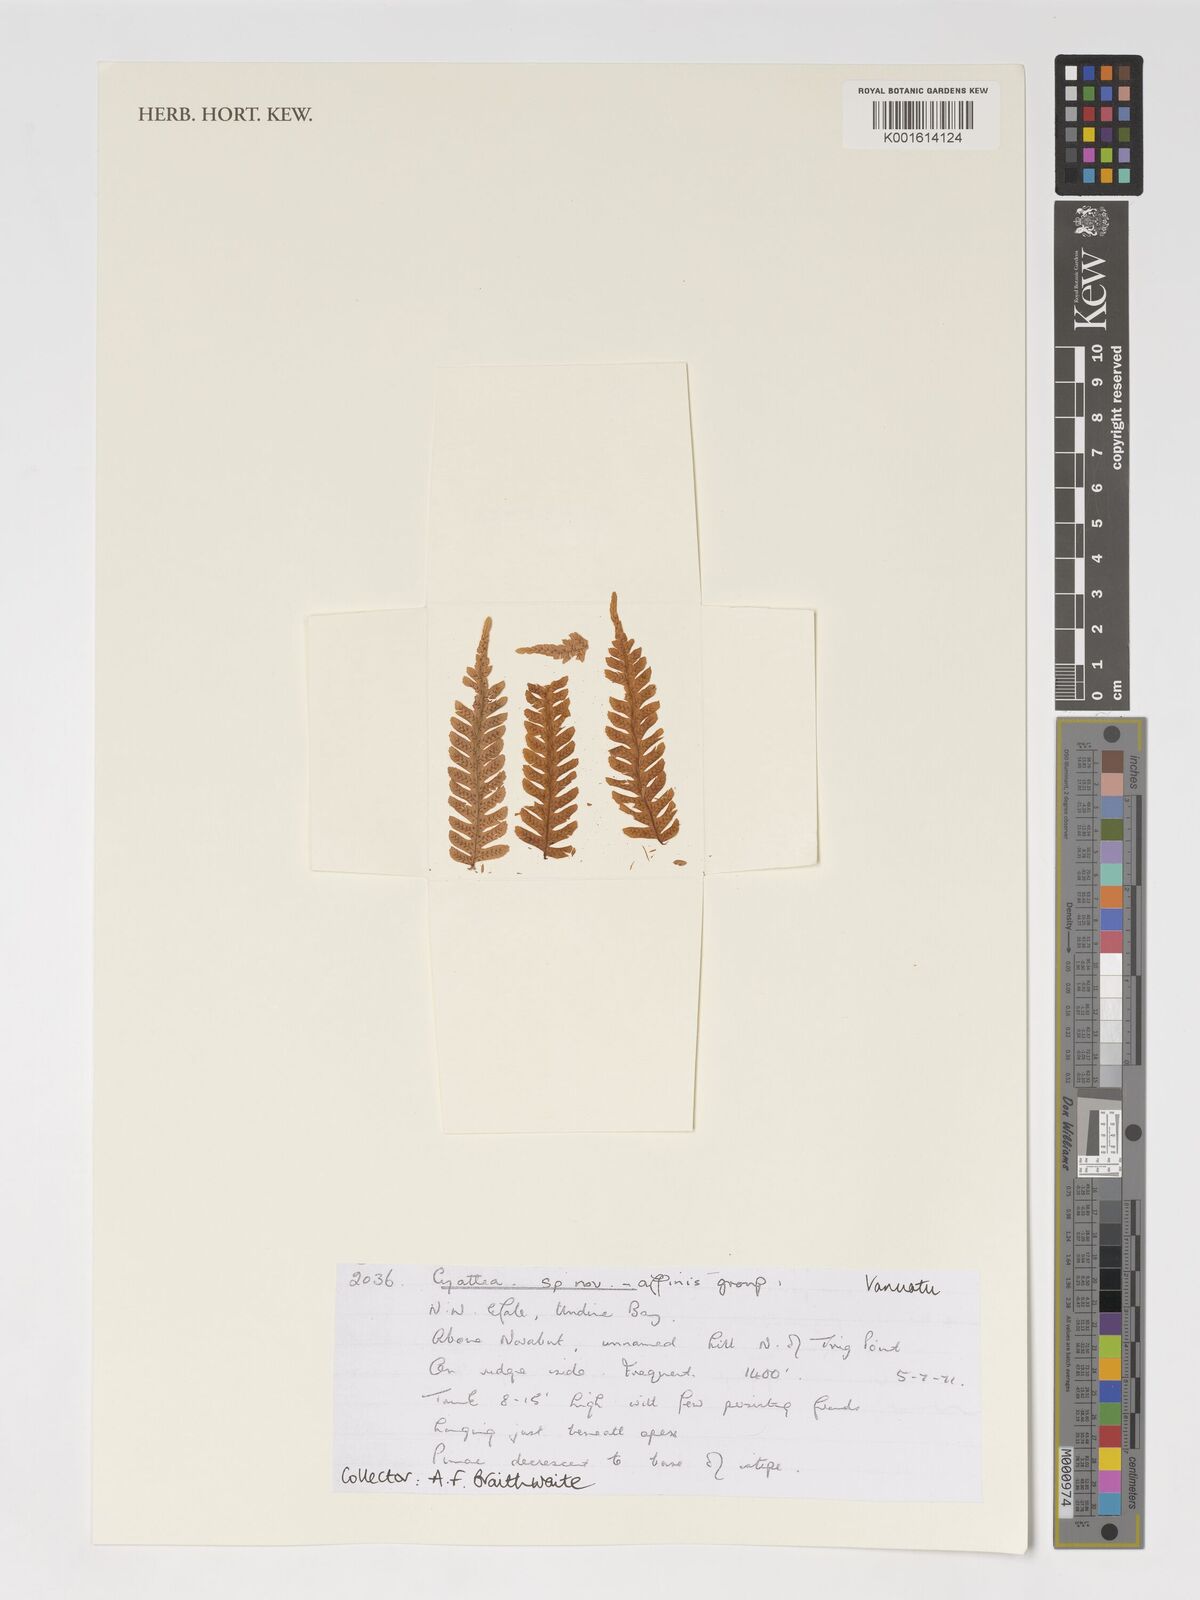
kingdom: Plantae
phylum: Tracheophyta
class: Polypodiopsida
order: Cyatheales
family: Cyatheaceae
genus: Cyathea
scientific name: Cyathea
